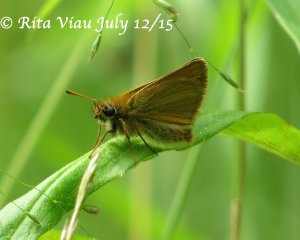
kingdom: Animalia
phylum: Arthropoda
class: Insecta
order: Lepidoptera
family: Hesperiidae
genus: Thymelicus
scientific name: Thymelicus lineola
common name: European Skipper
